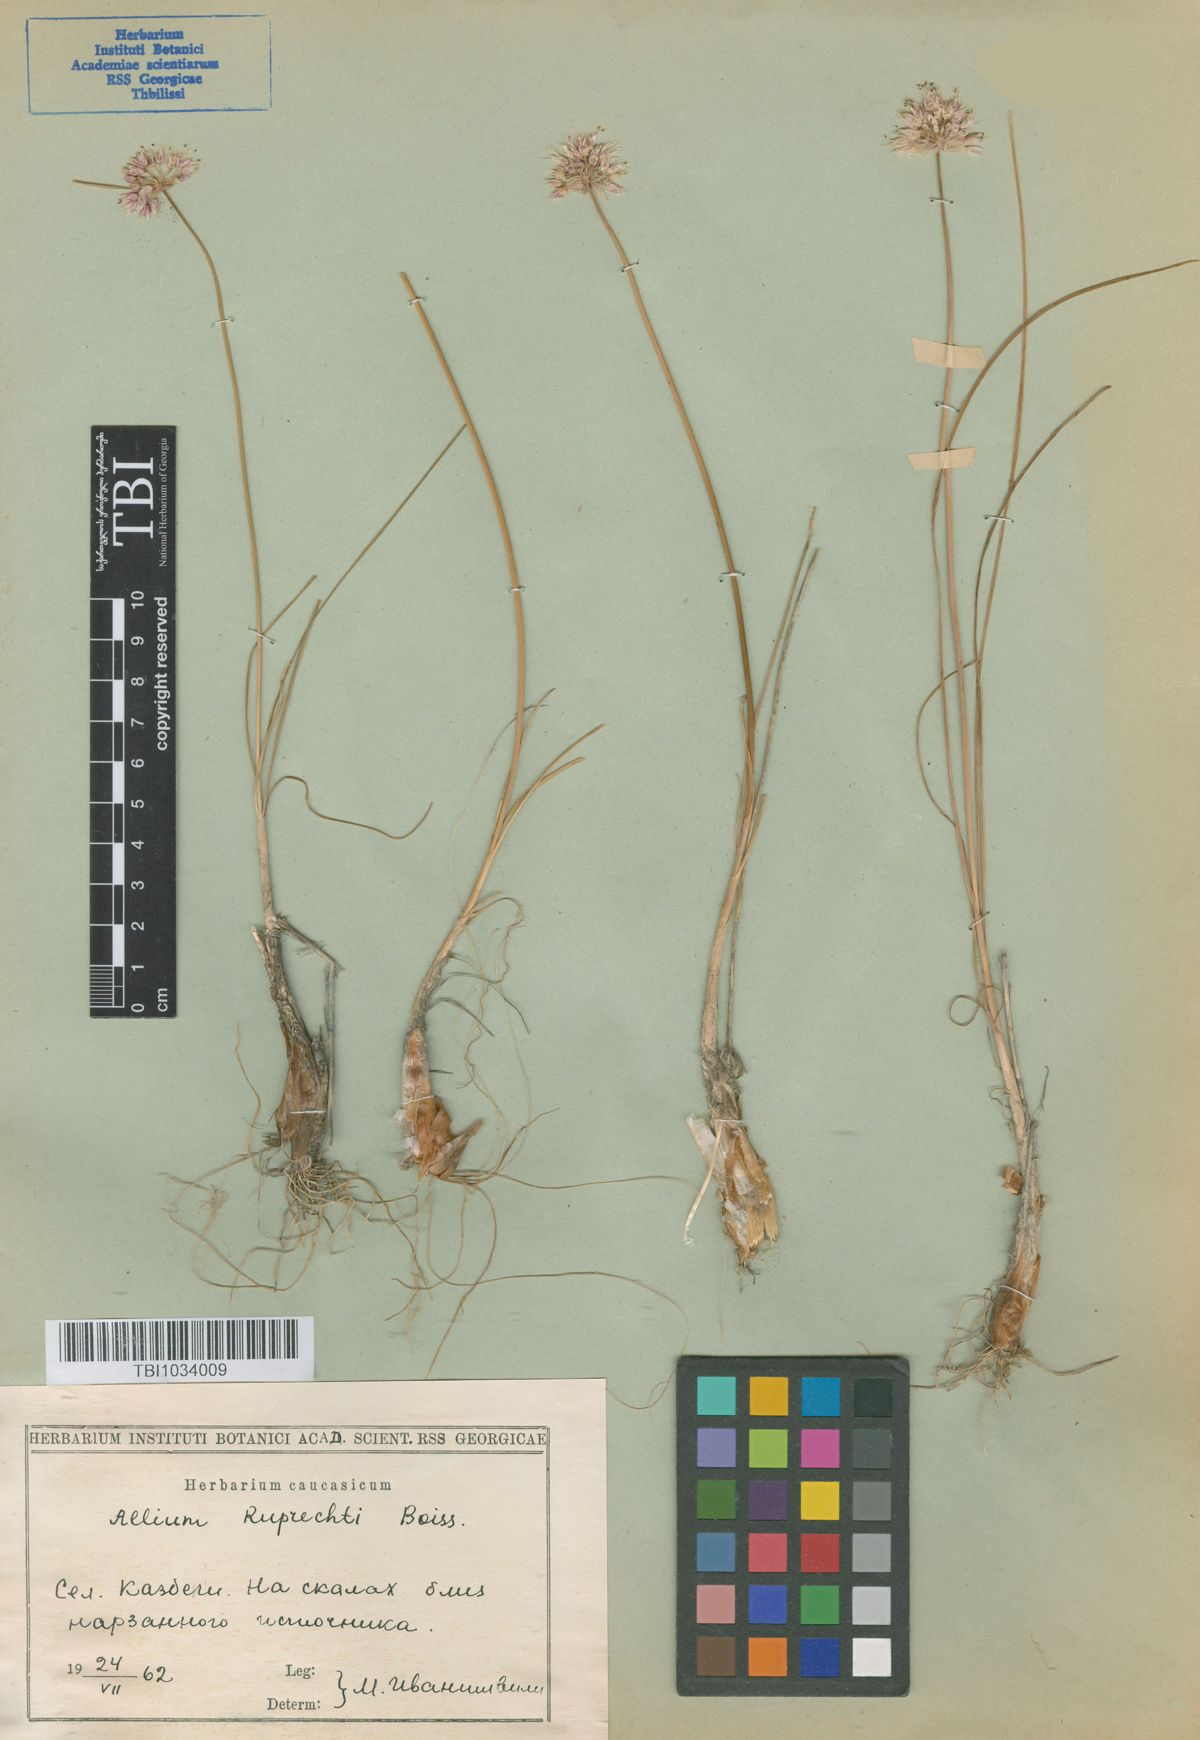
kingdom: Plantae
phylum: Tracheophyta
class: Liliopsida
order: Asparagales
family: Amaryllidaceae
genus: Allium
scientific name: Allium saxatile
